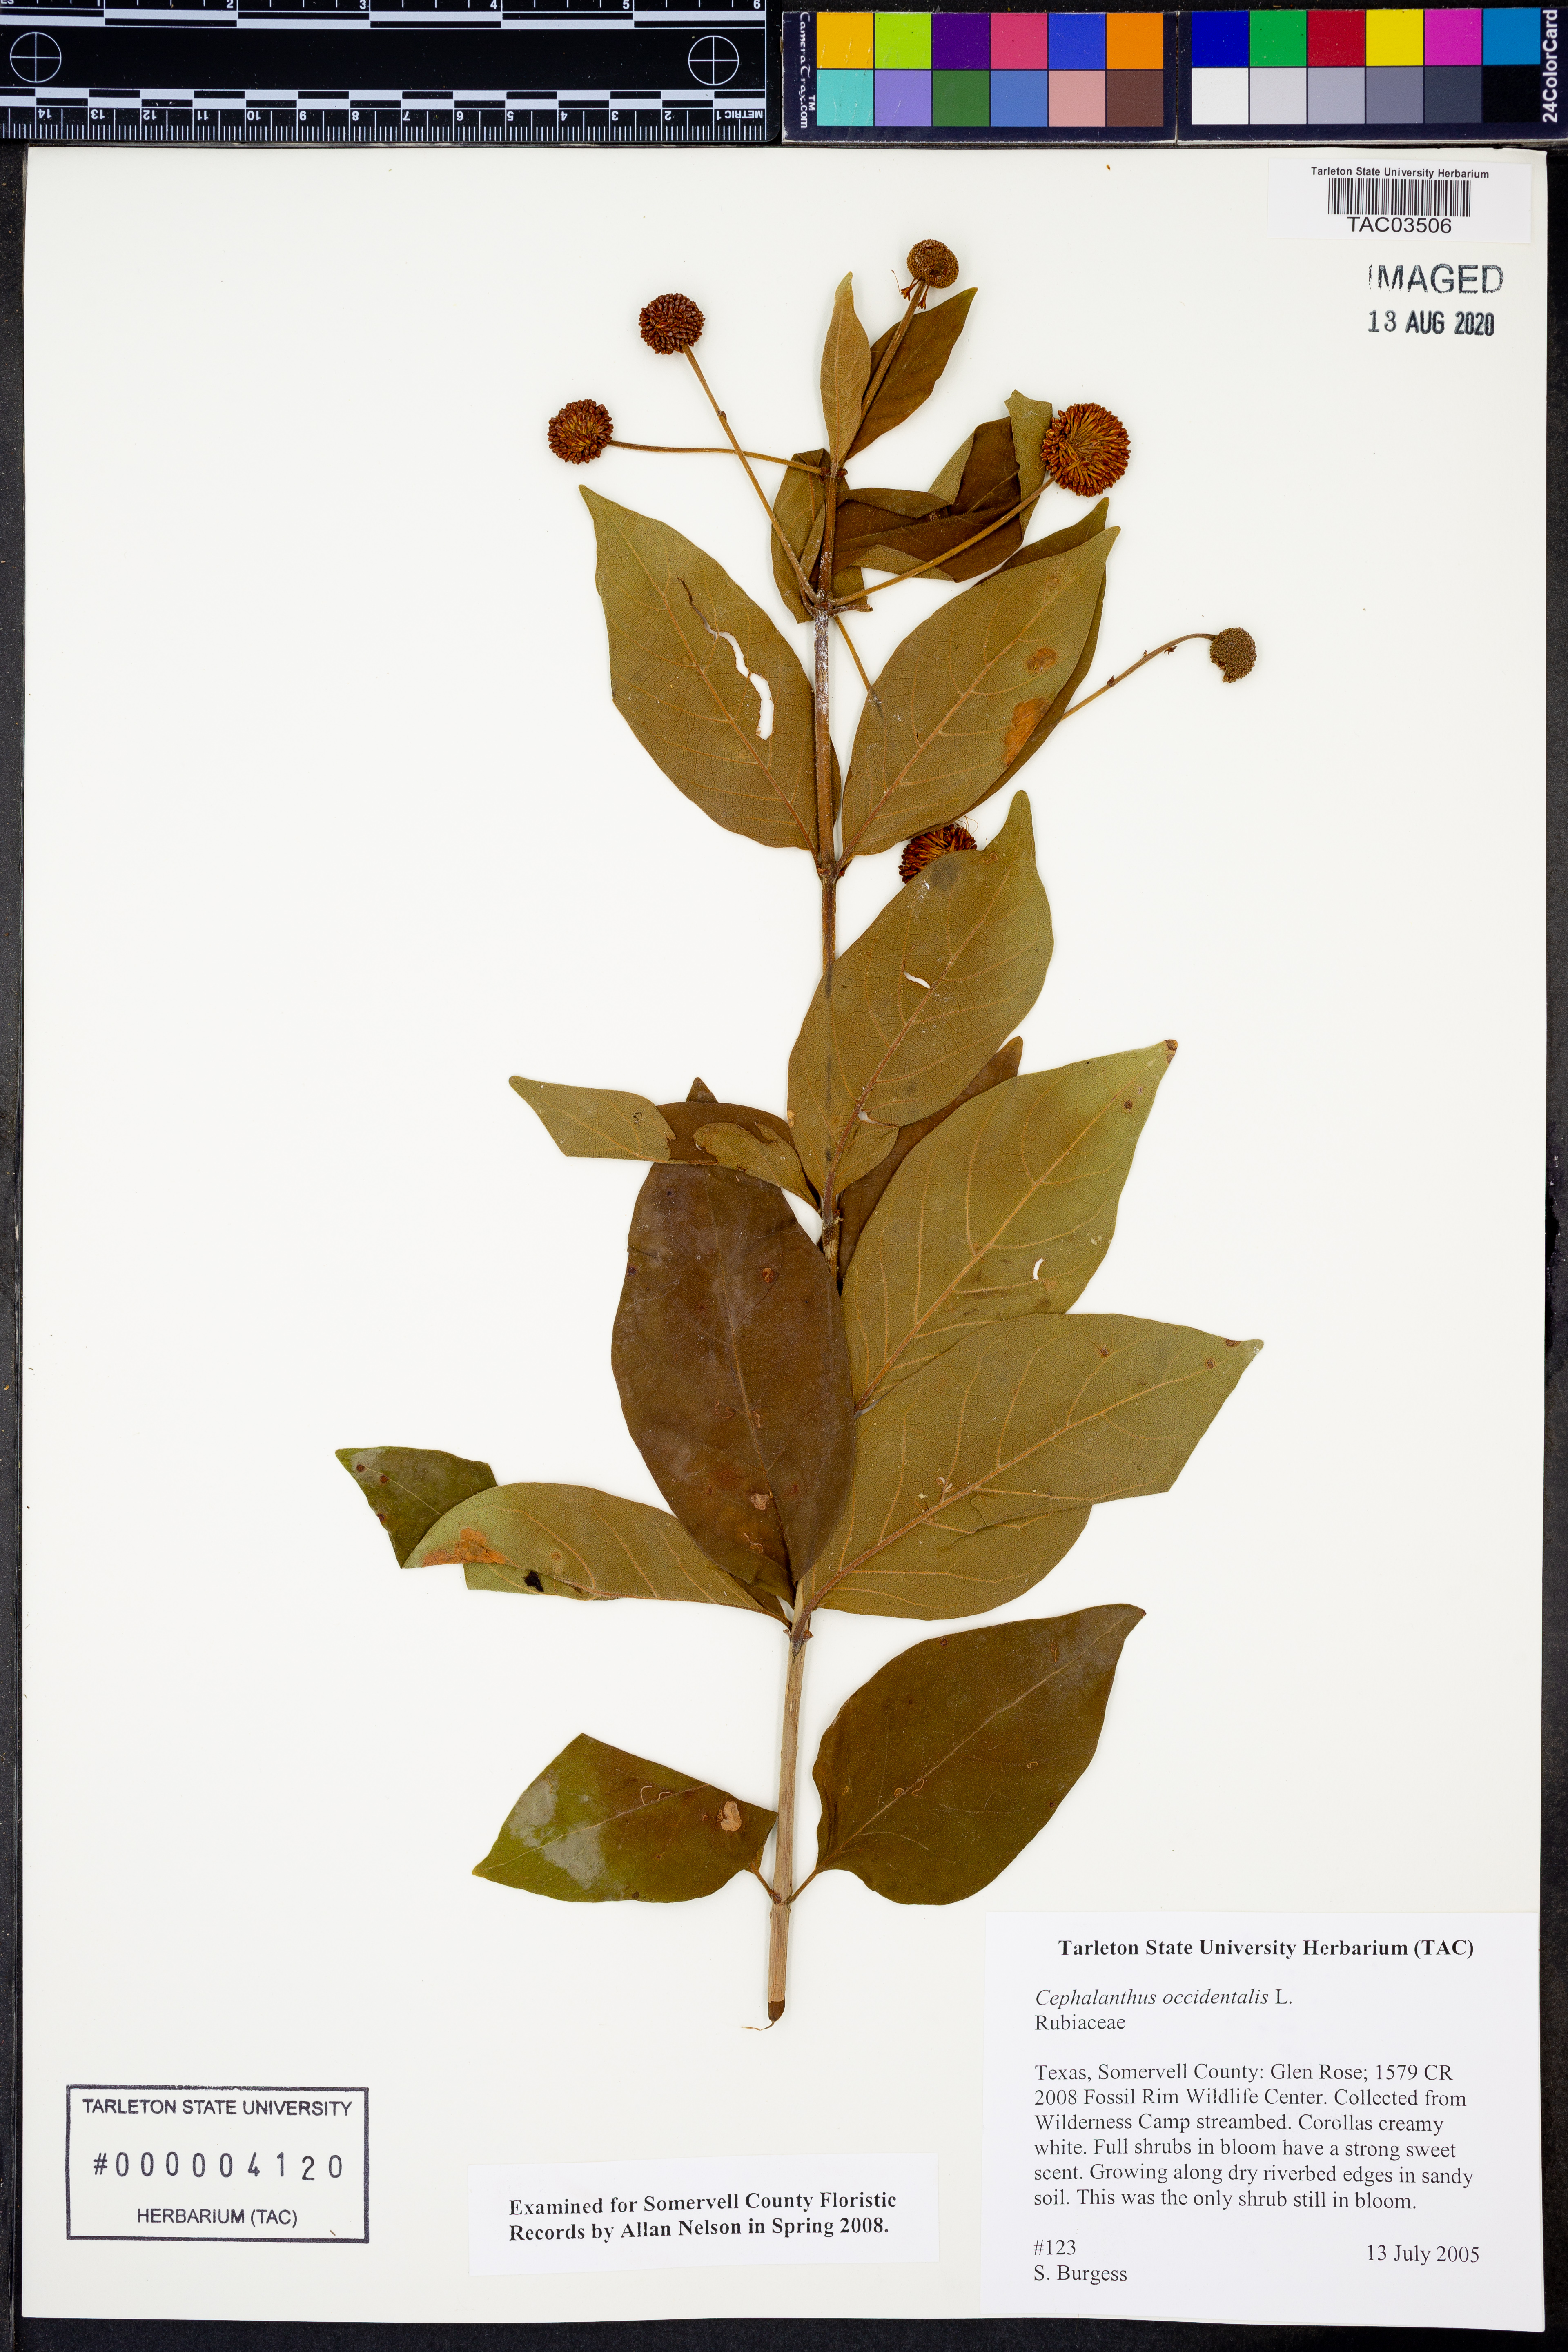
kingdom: Plantae
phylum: Tracheophyta
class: Magnoliopsida
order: Gentianales
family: Rubiaceae
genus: Cephalanthus
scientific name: Cephalanthus occidentalis
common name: Button-willow
